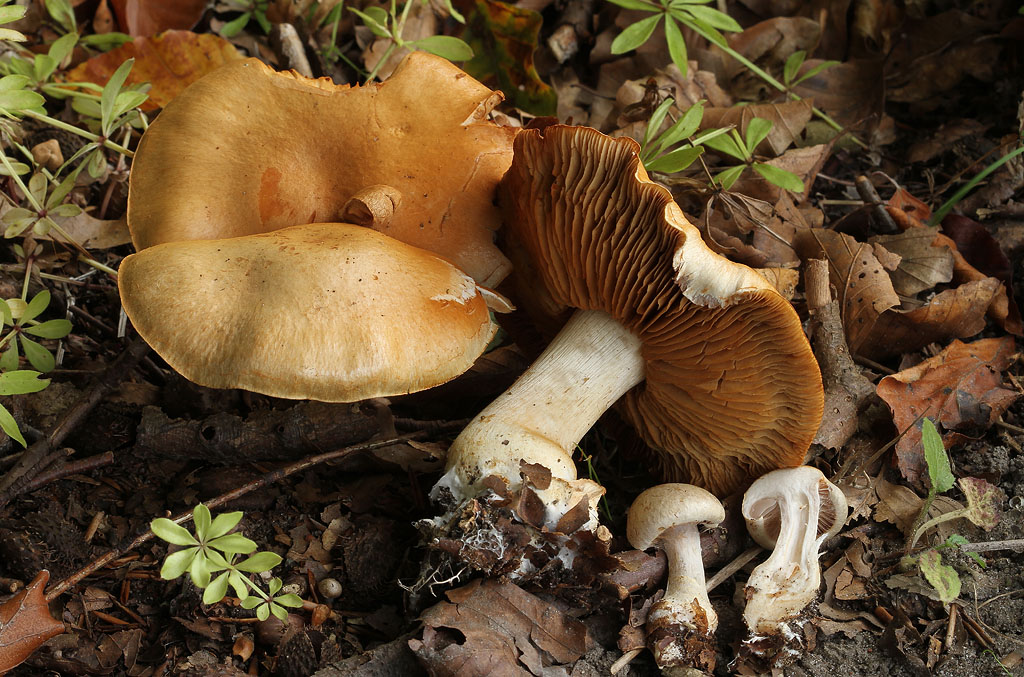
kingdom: Fungi
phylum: Basidiomycota
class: Agaricomycetes
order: Agaricales
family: Cortinariaceae
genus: Cortinarius
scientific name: Cortinarius anserinus
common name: bøge-slørhat
